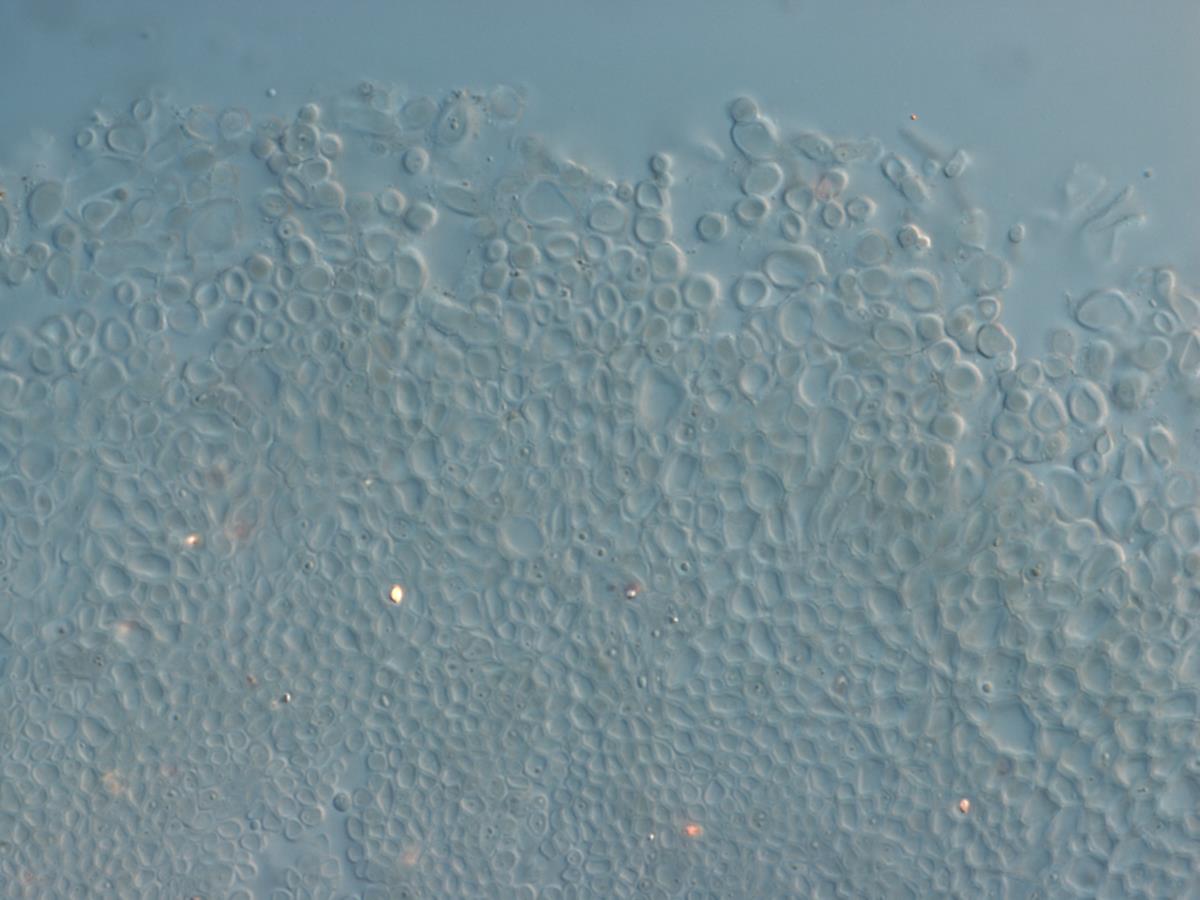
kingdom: Fungi
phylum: Ascomycota
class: Leotiomycetes
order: Helotiales
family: Vibrisseaceae
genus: Chlorovibrissea
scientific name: Chlorovibrissea bicolor
